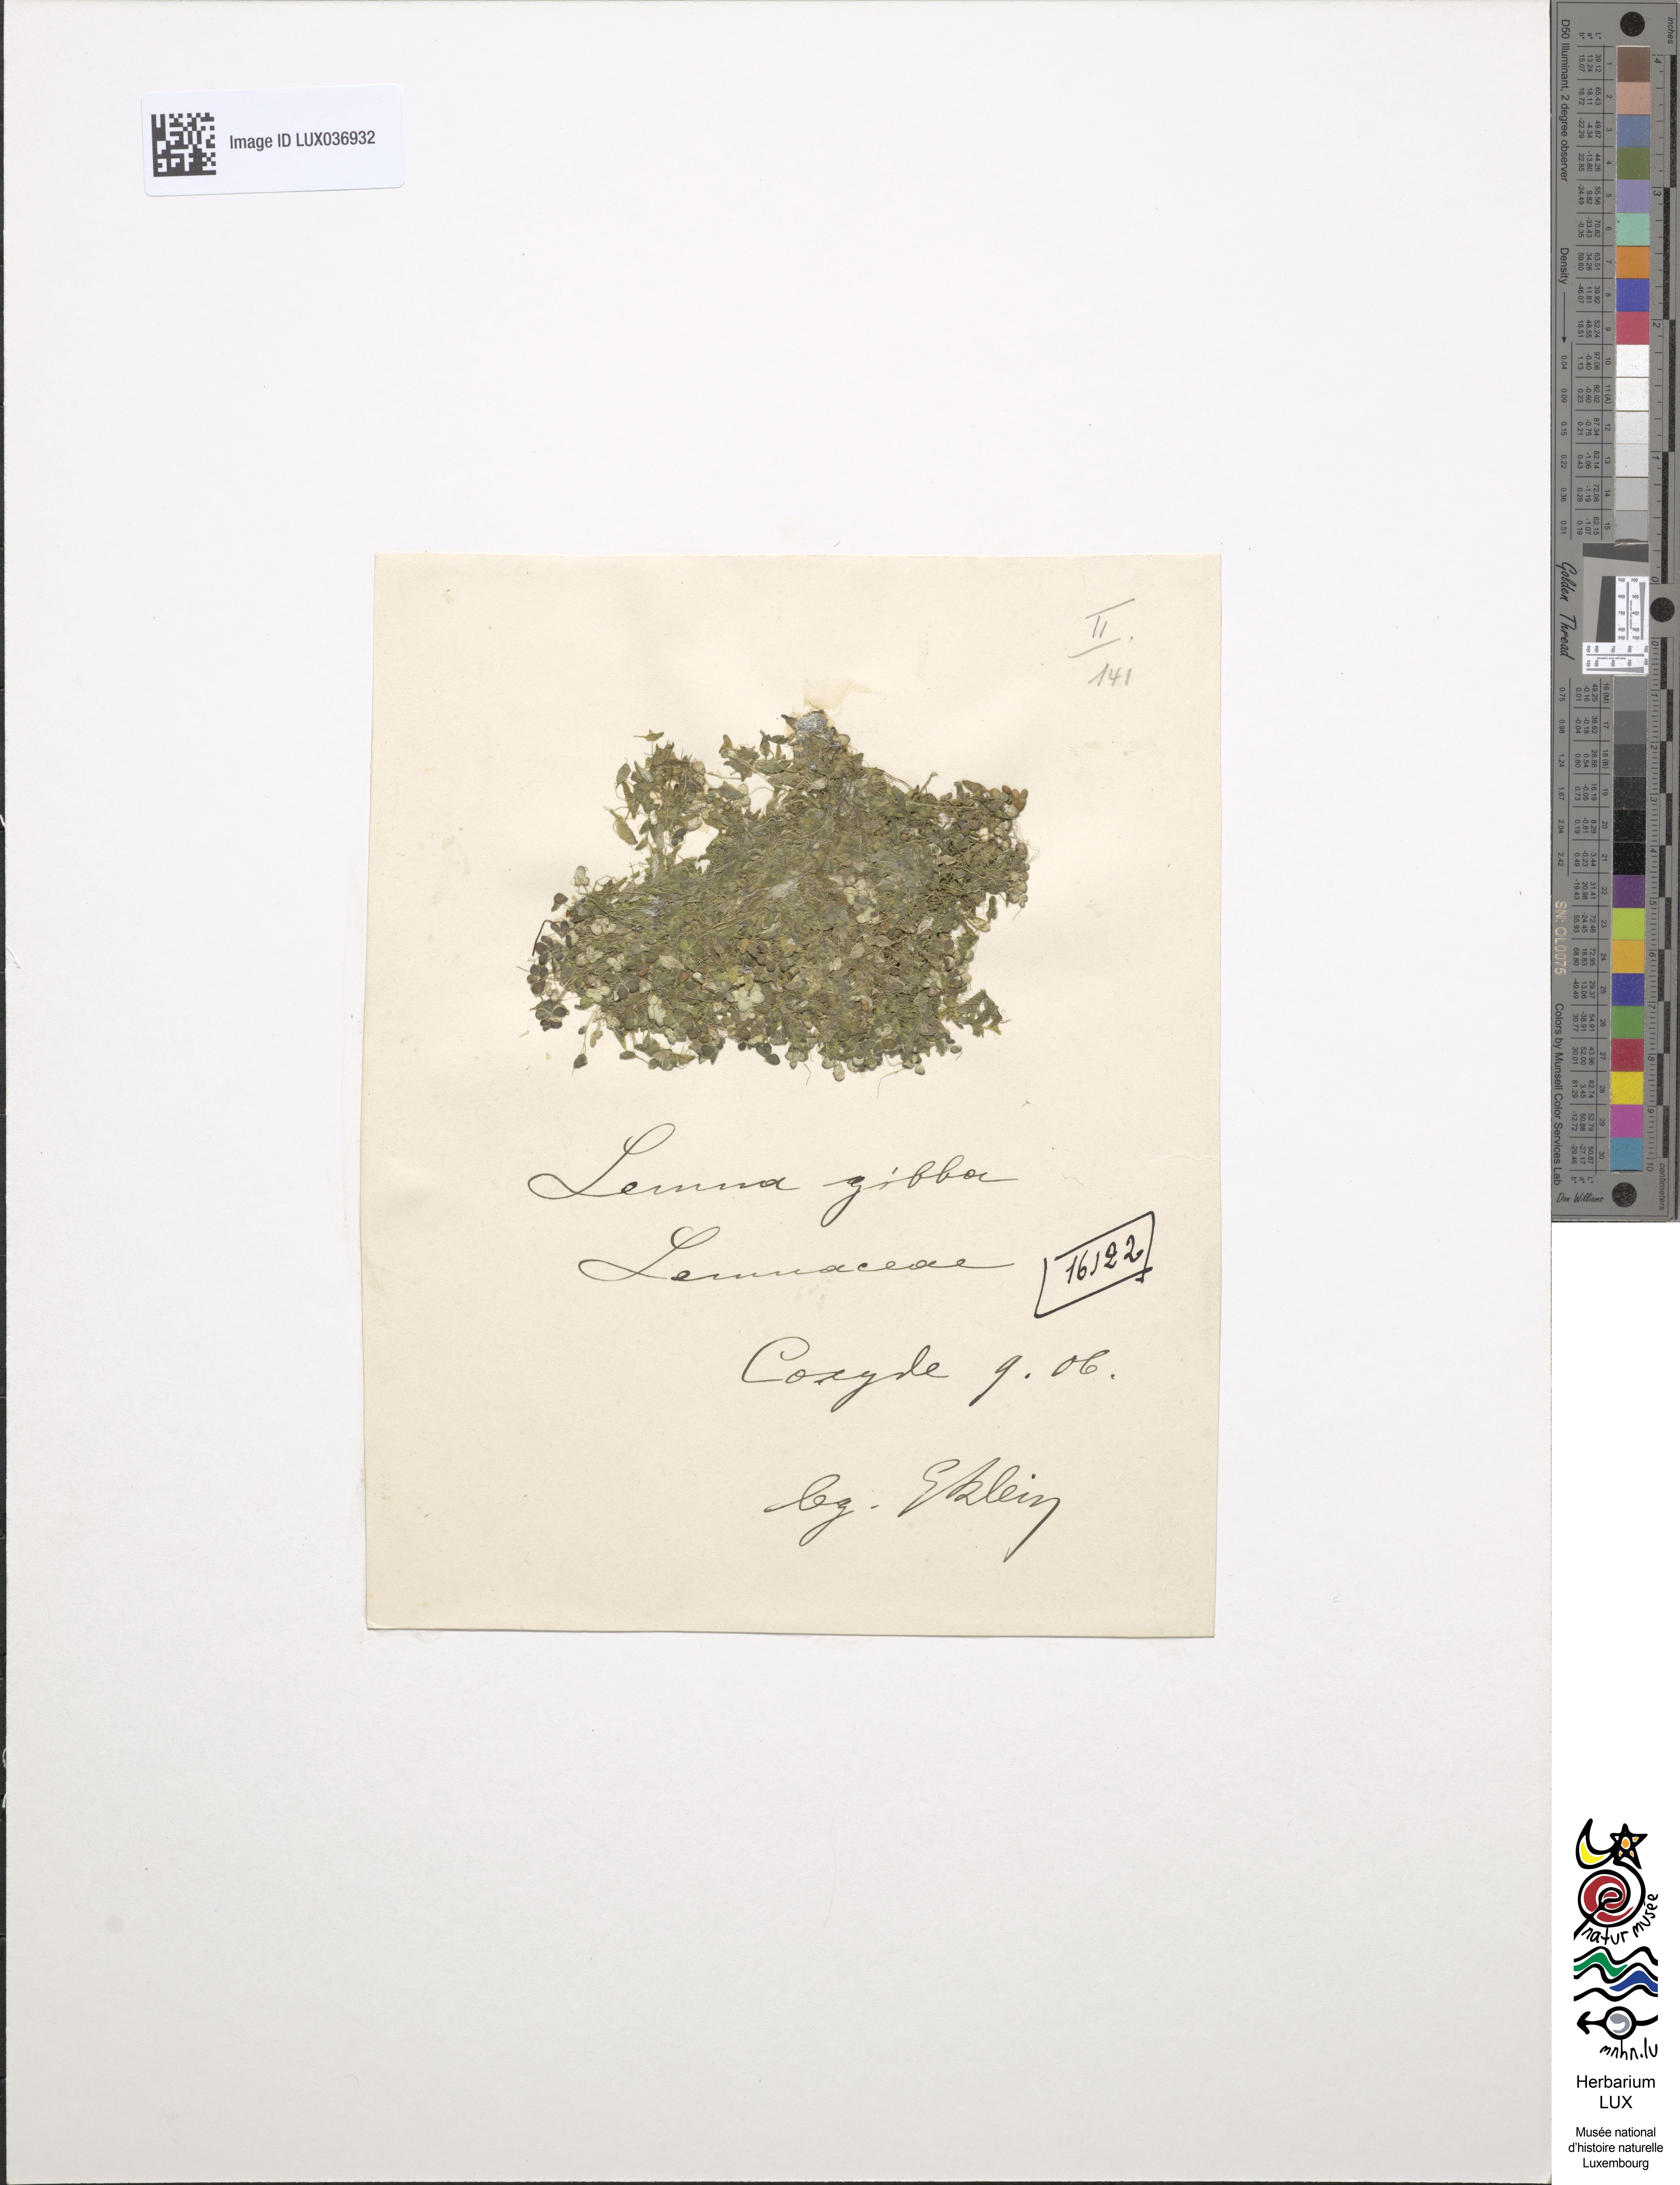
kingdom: Plantae
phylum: Tracheophyta
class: Liliopsida
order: Alismatales
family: Araceae
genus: Lemna
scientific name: Lemna gibba
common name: Fat duckweed
